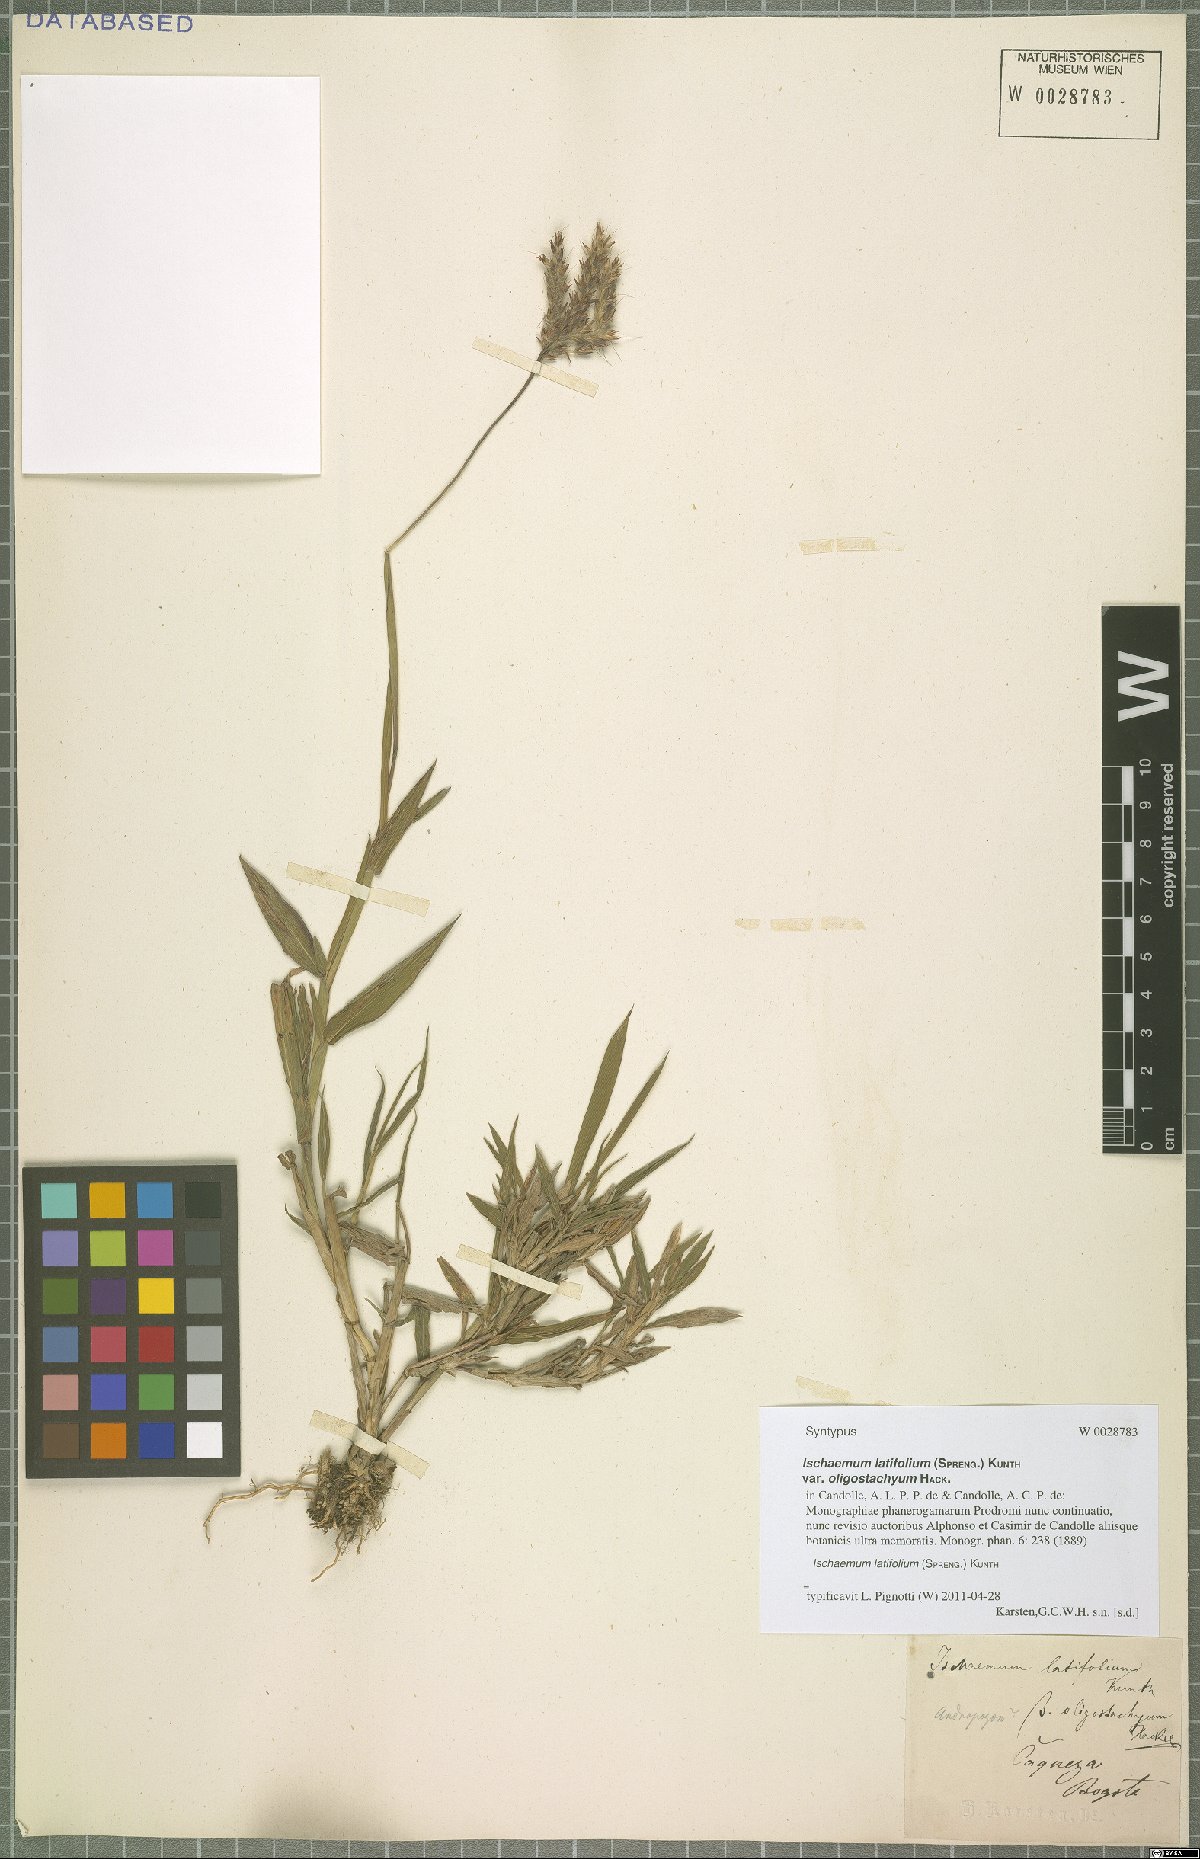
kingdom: Plantae
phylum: Tracheophyta
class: Liliopsida
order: Poales
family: Poaceae
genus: Ischaemum
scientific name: Ischaemum latifolium
